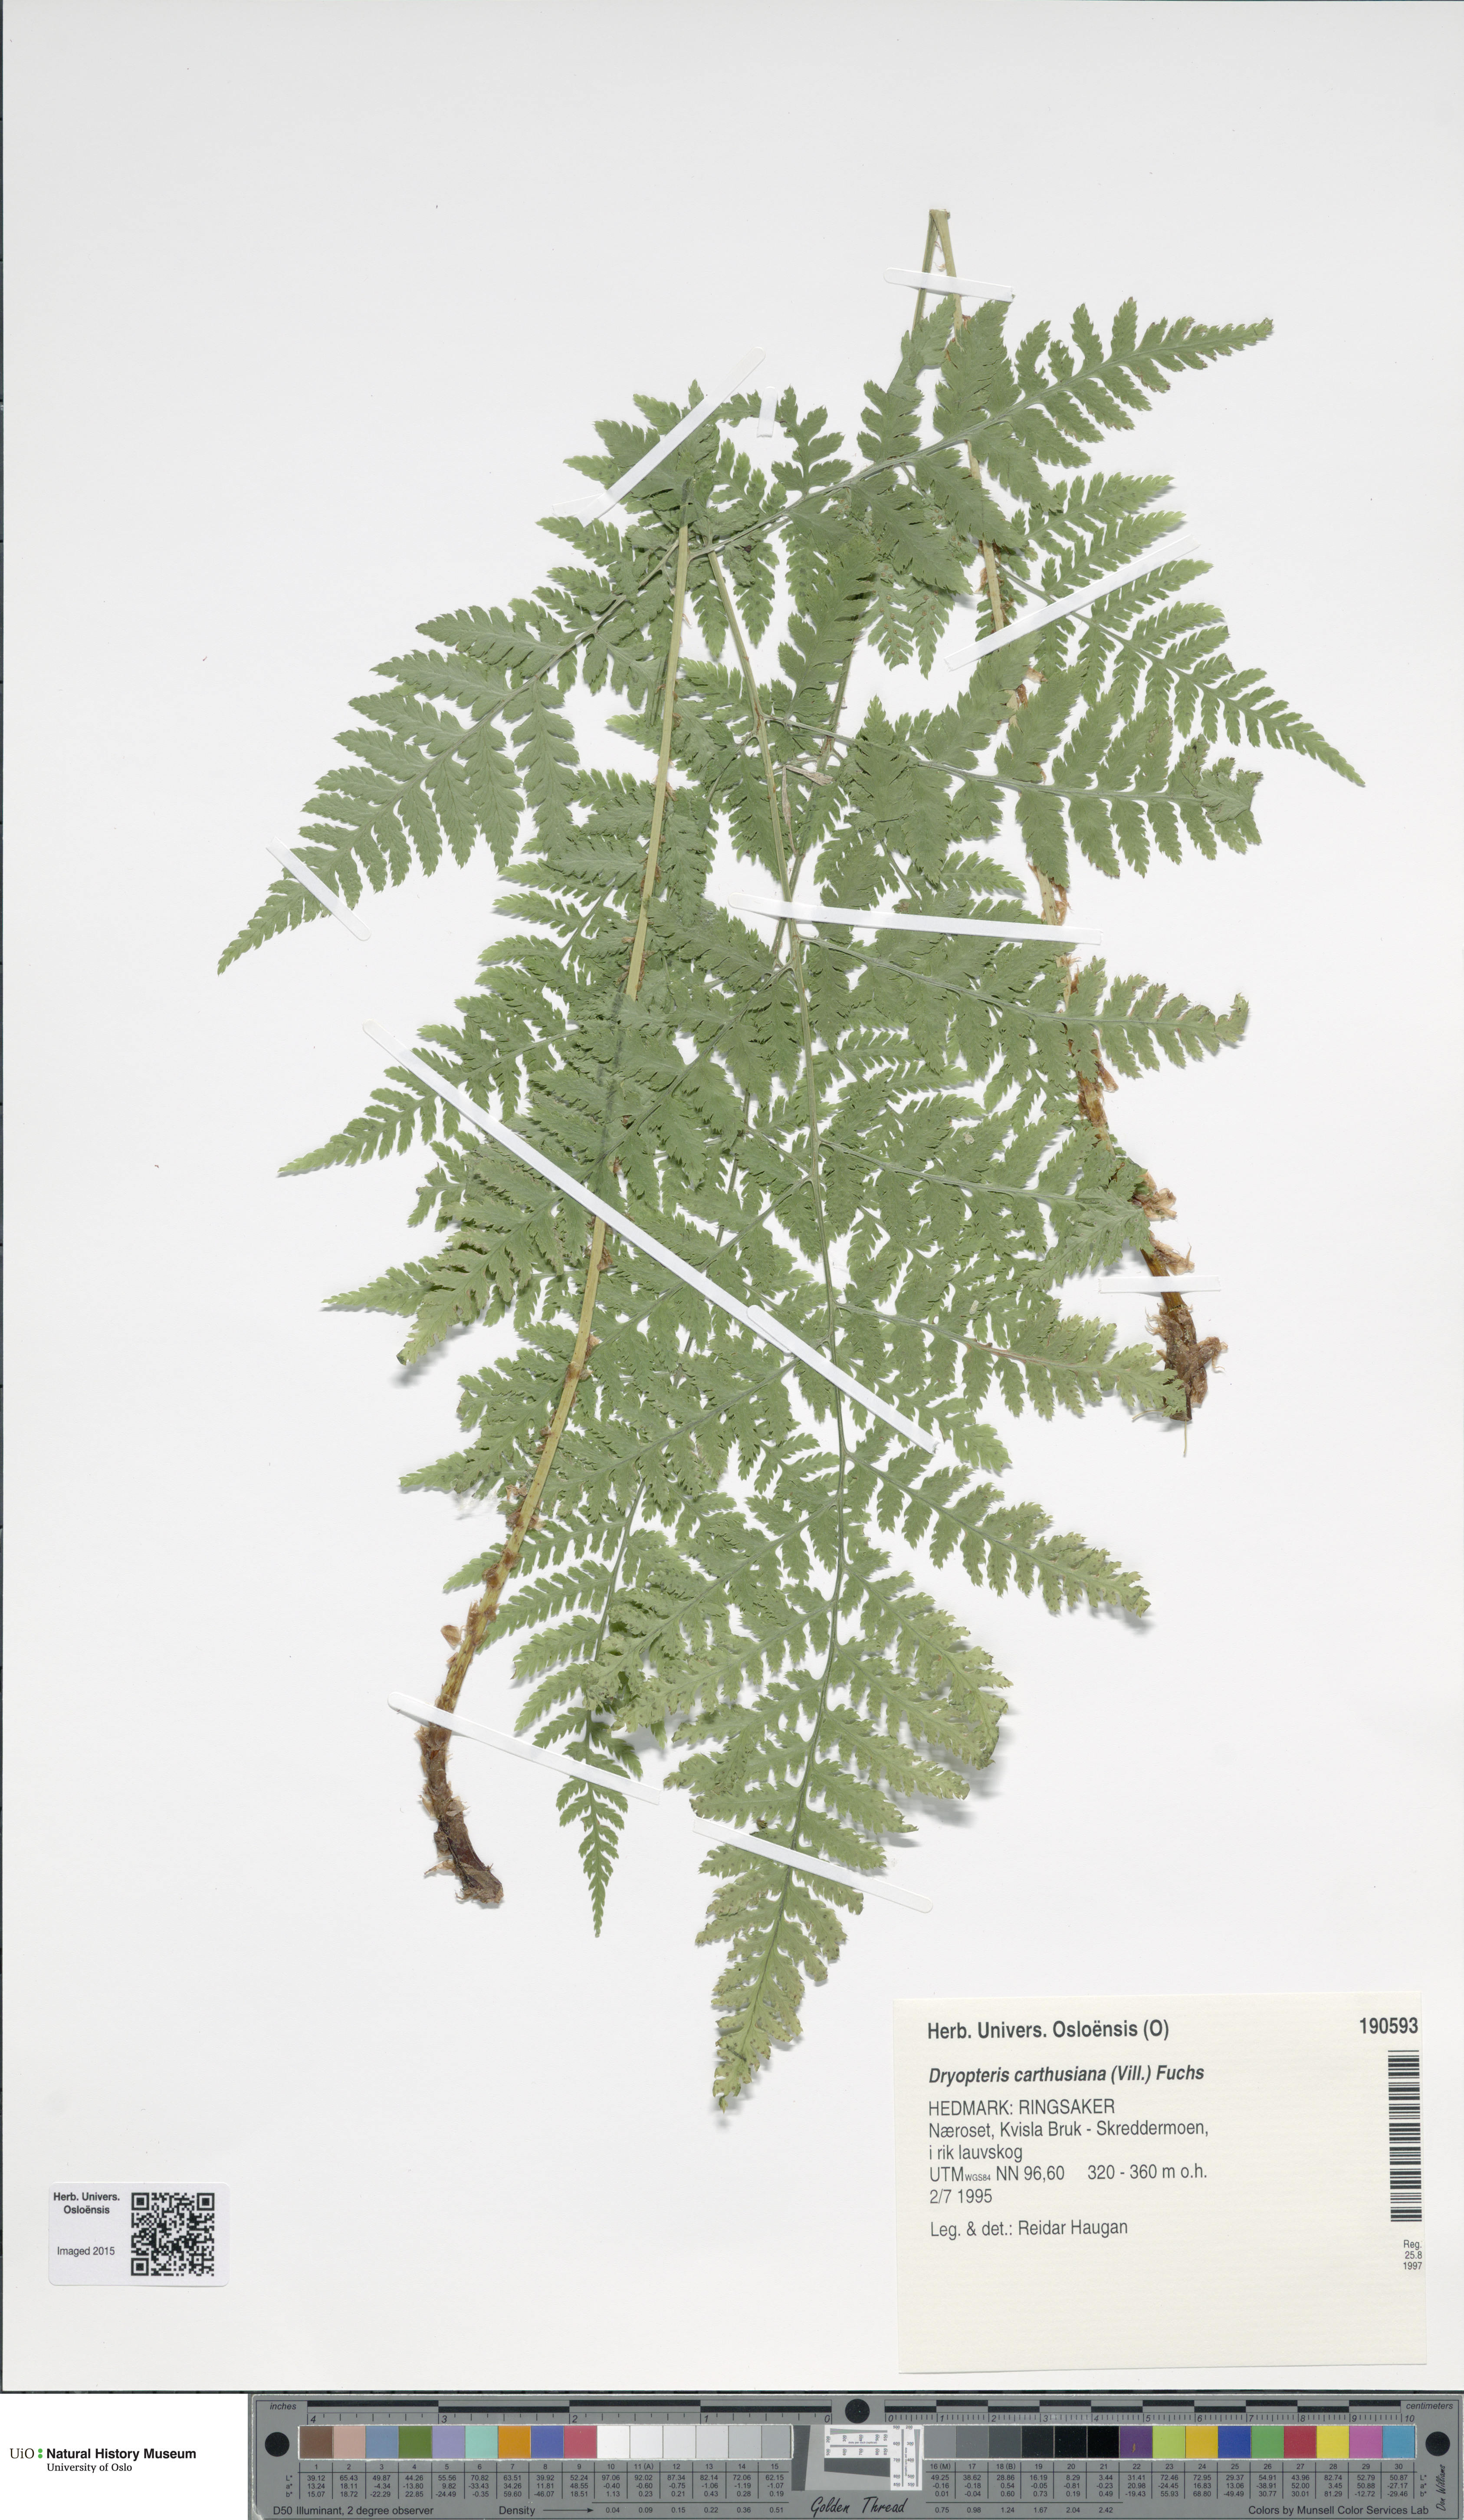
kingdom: Plantae
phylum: Tracheophyta
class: Polypodiopsida
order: Polypodiales
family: Dryopteridaceae
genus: Dryopteris
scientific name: Dryopteris carthusiana
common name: Narrow buckler-fern
